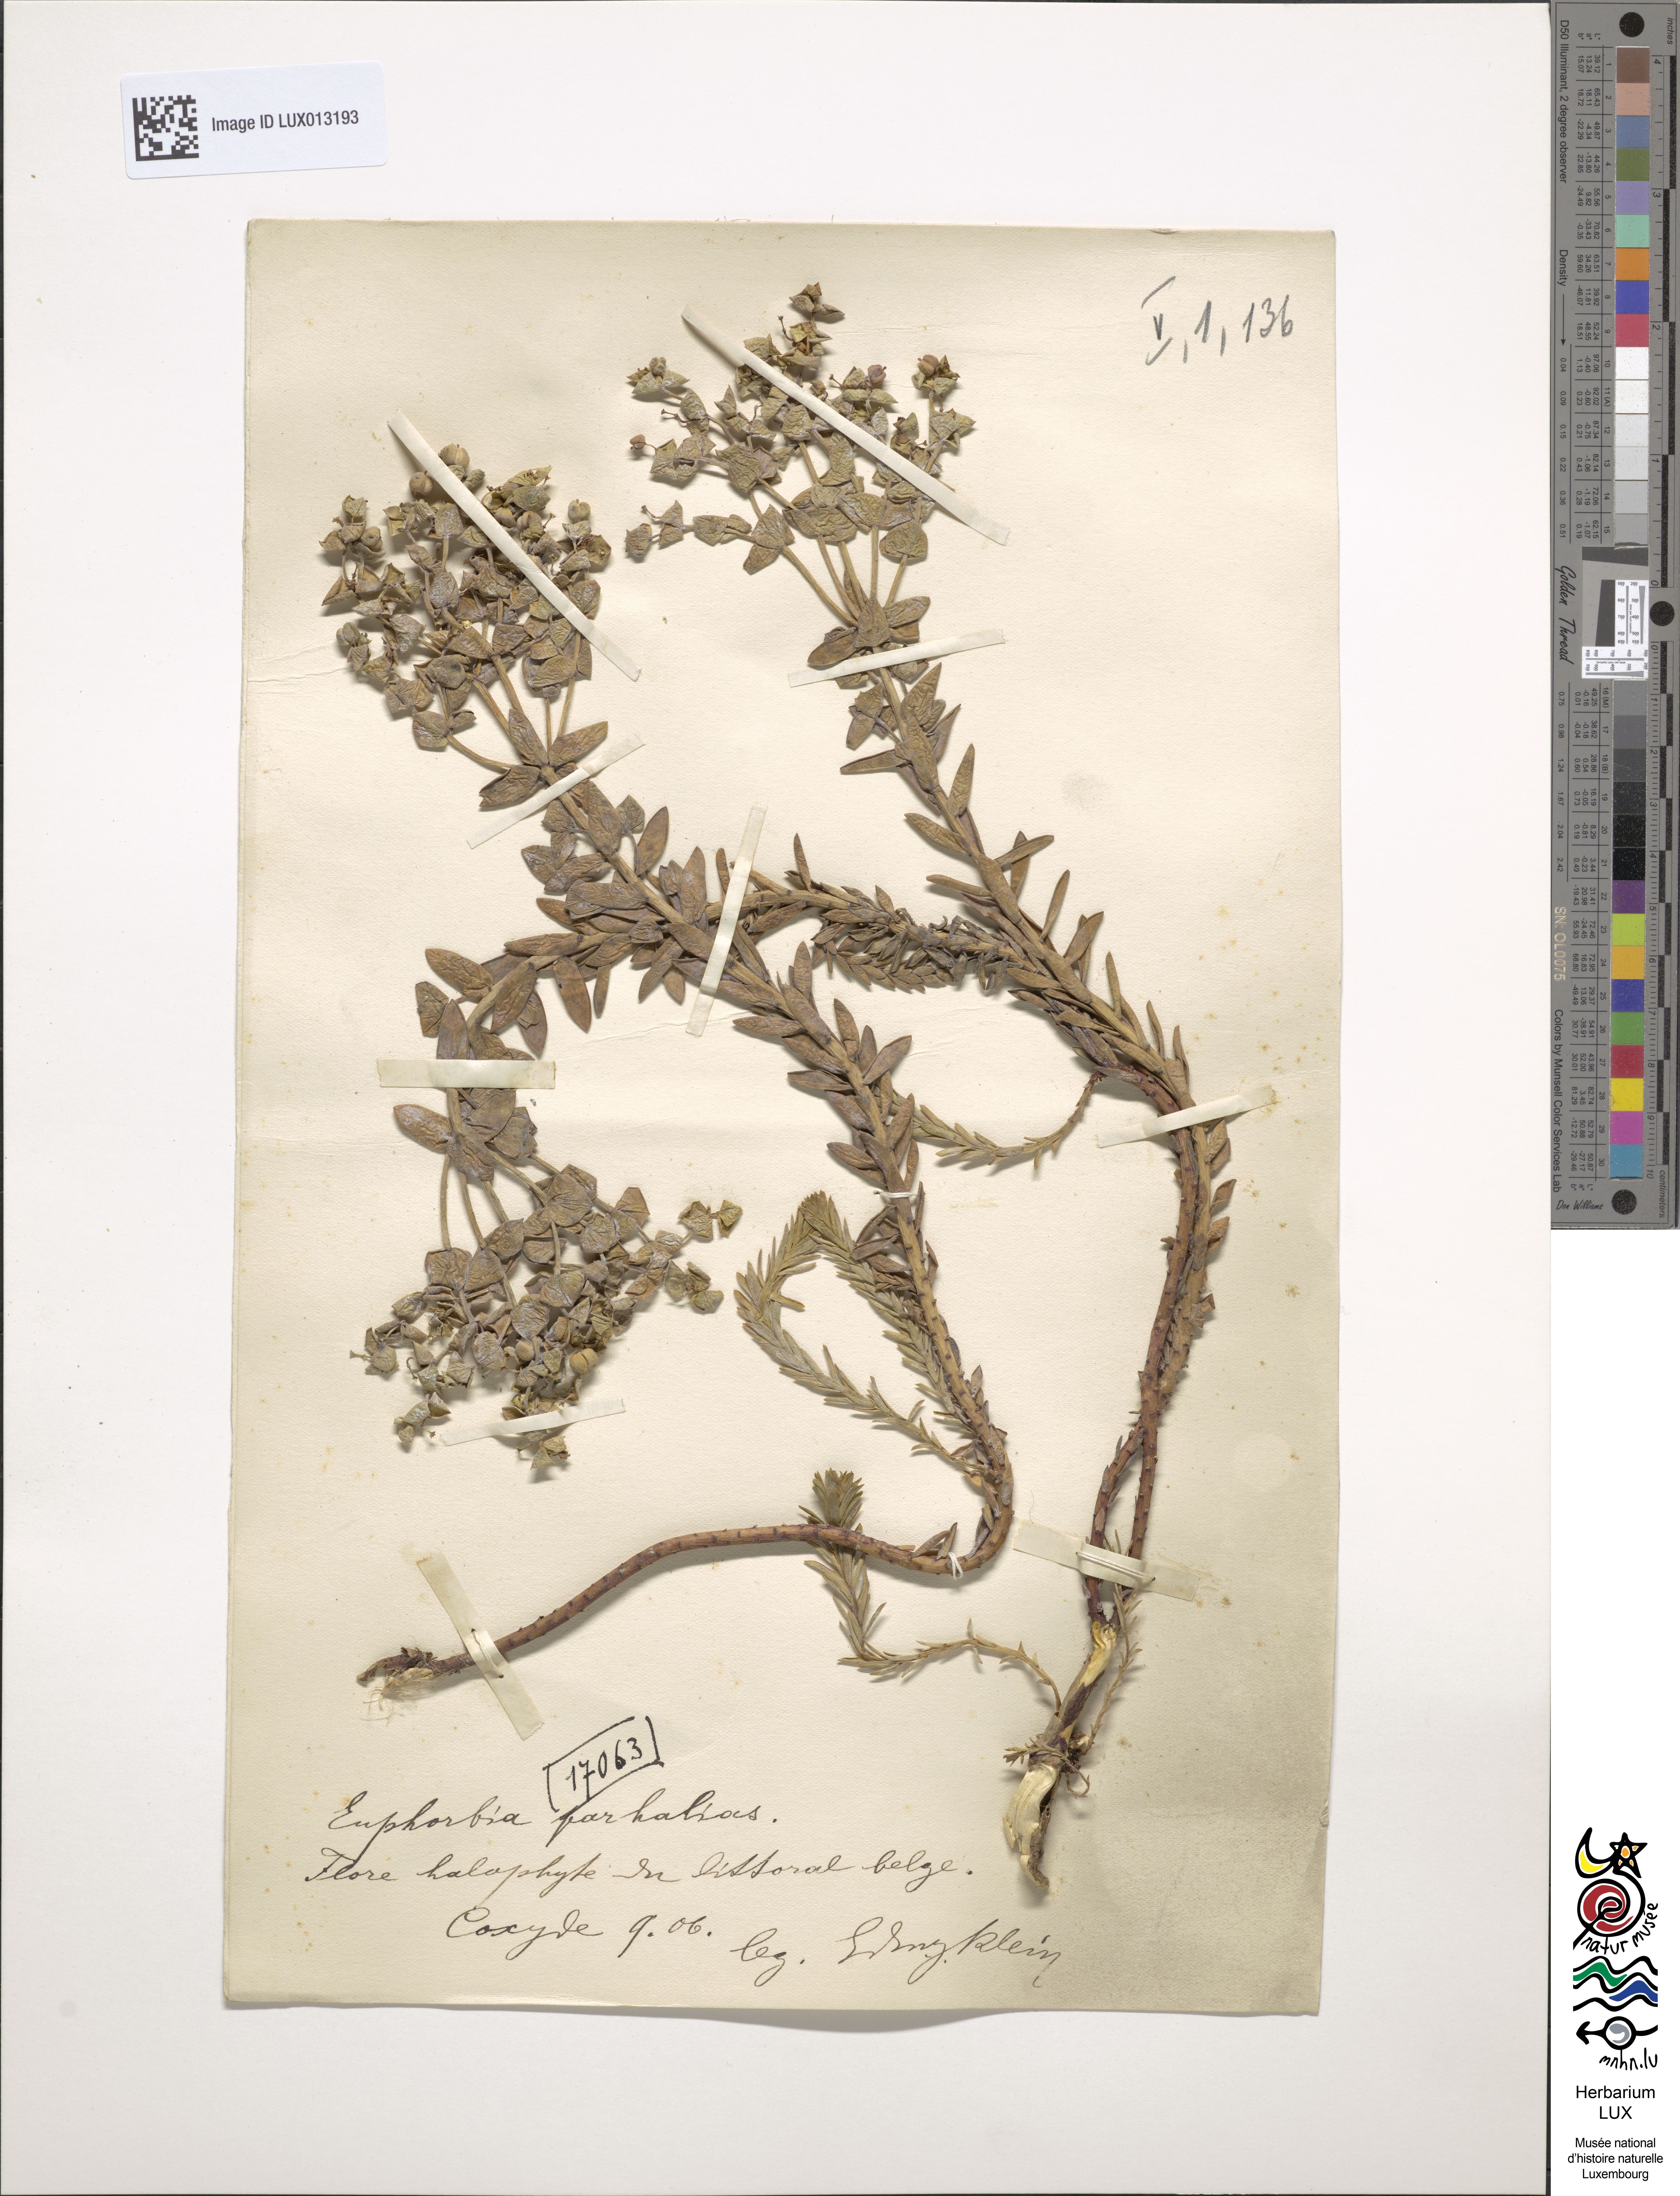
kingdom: Plantae
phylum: Tracheophyta
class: Magnoliopsida
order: Malpighiales
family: Euphorbiaceae
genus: Euphorbia
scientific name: Euphorbia paralias
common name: Sea spurge
